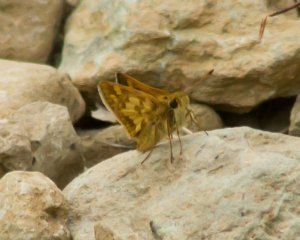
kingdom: Animalia
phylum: Arthropoda
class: Insecta
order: Lepidoptera
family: Hesperiidae
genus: Polites
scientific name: Polites coras
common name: Peck's Skipper
